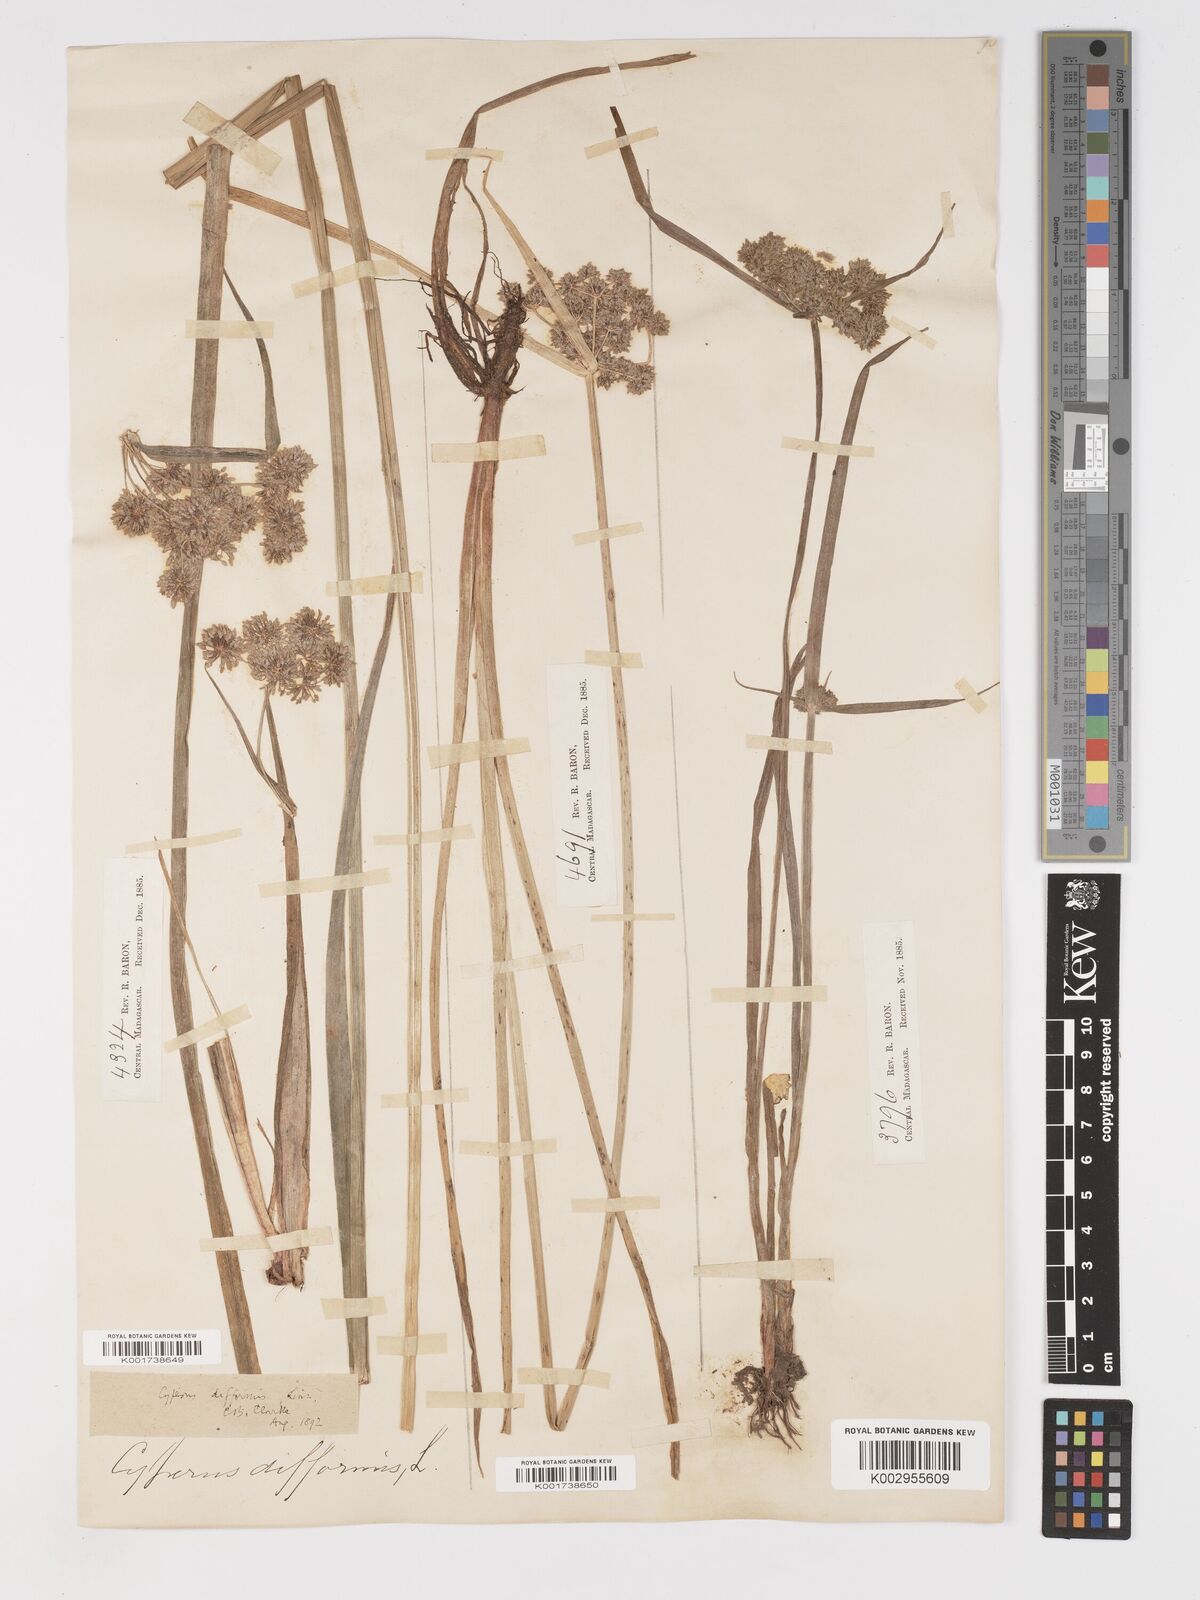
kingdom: Plantae
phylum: Tracheophyta
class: Liliopsida
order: Poales
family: Cyperaceae
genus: Cyperus
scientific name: Cyperus difformis
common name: Variable flatsedge
